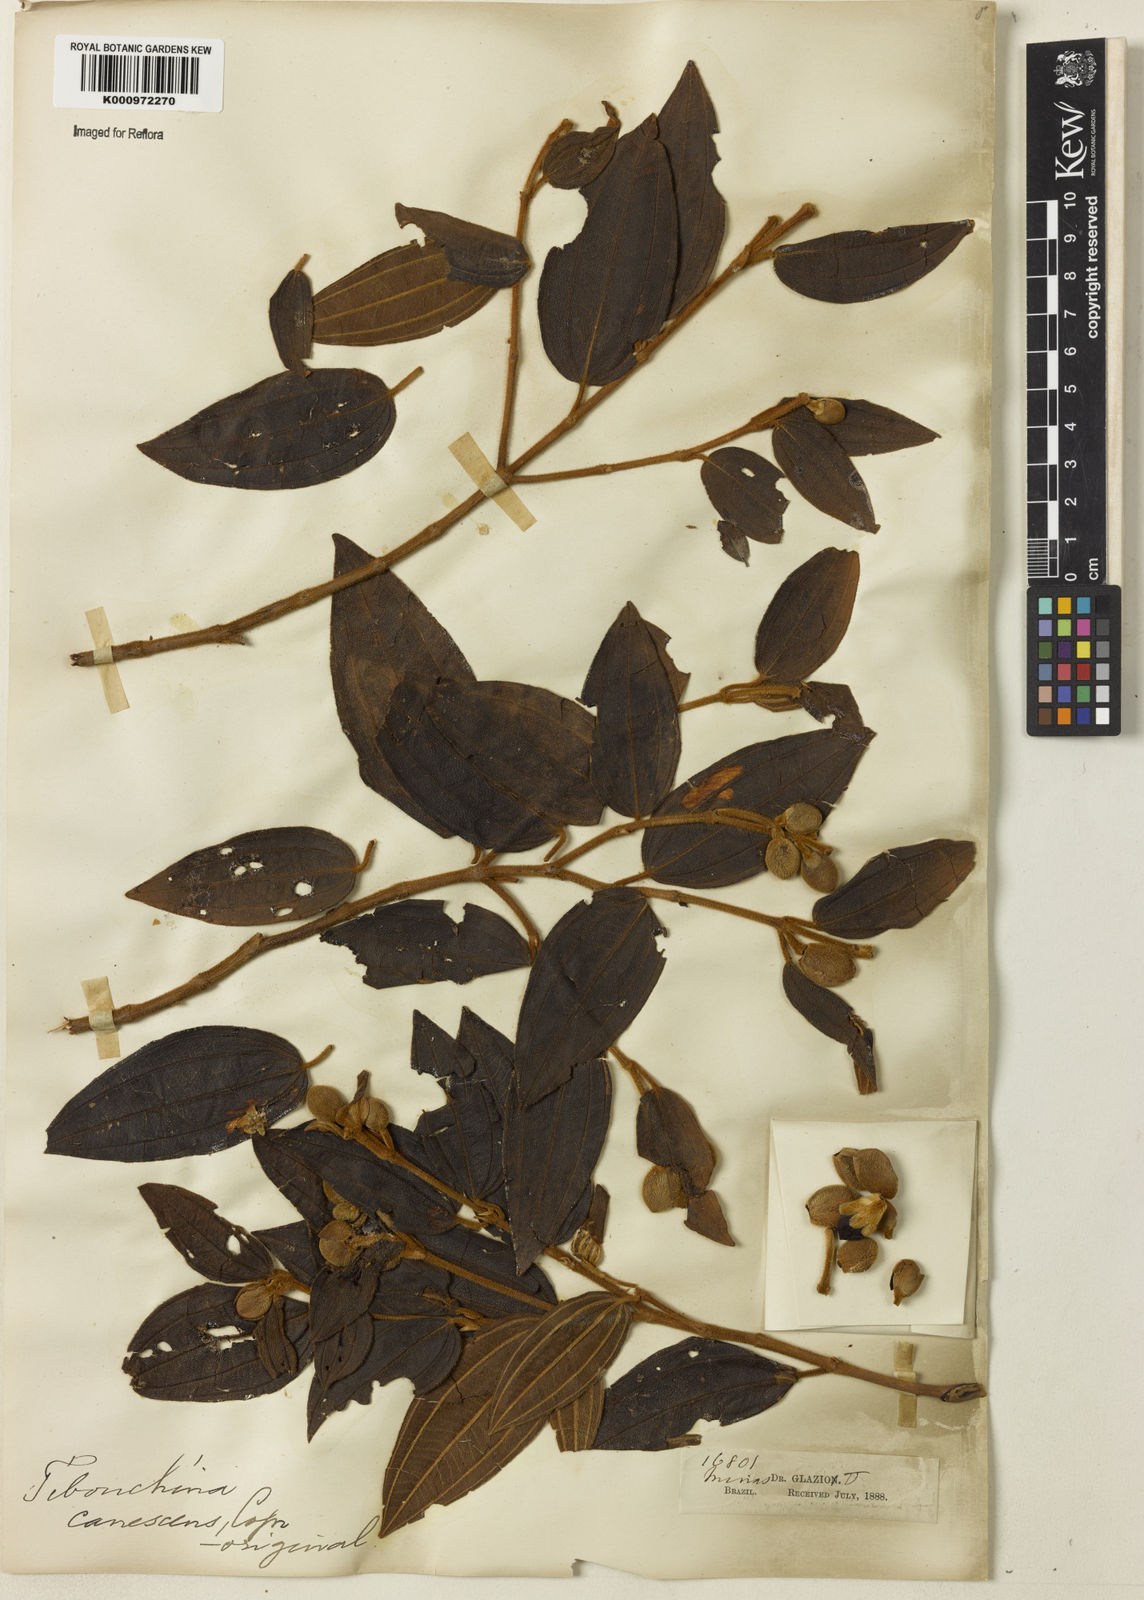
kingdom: Plantae
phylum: Tracheophyta
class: Magnoliopsida
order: Myrtales
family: Melastomataceae
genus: Pleroma
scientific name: Pleroma canescens
